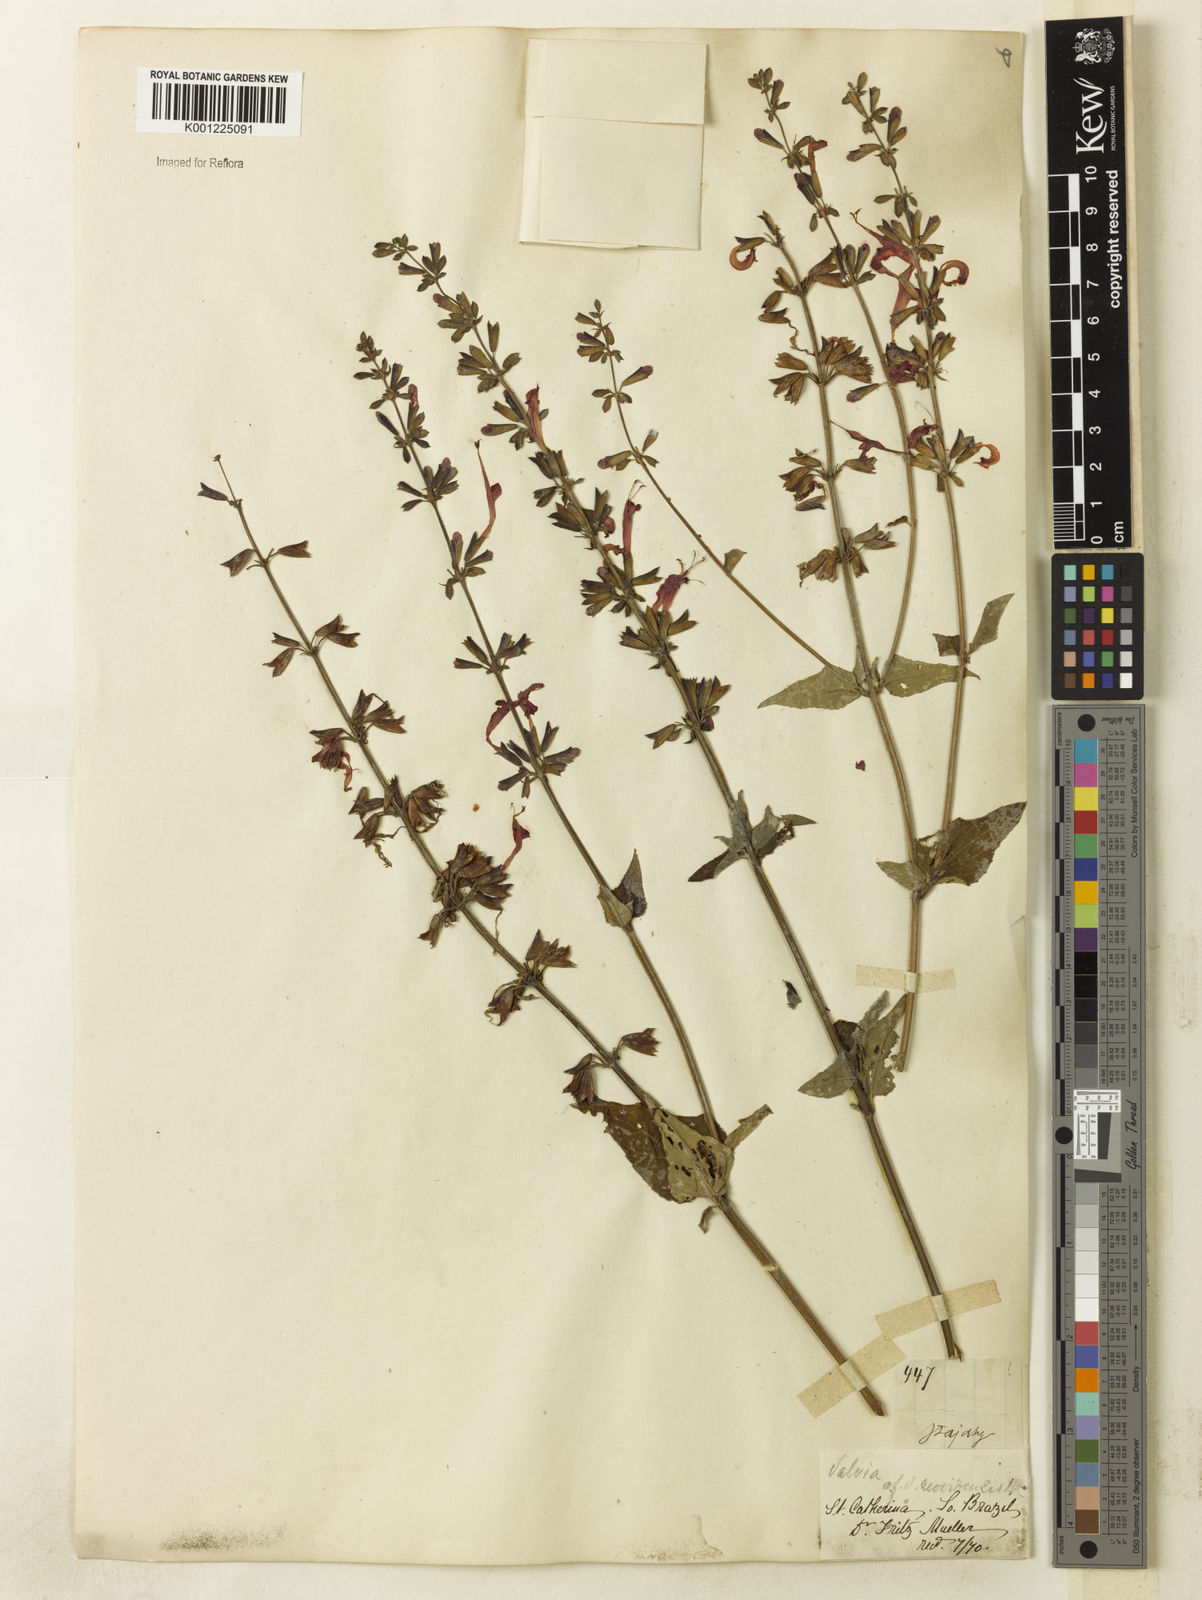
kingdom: Plantae
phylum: Tracheophyta
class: Magnoliopsida
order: Lamiales
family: Lamiaceae
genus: Salvia
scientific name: Salvia coccinea
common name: Blood sage
